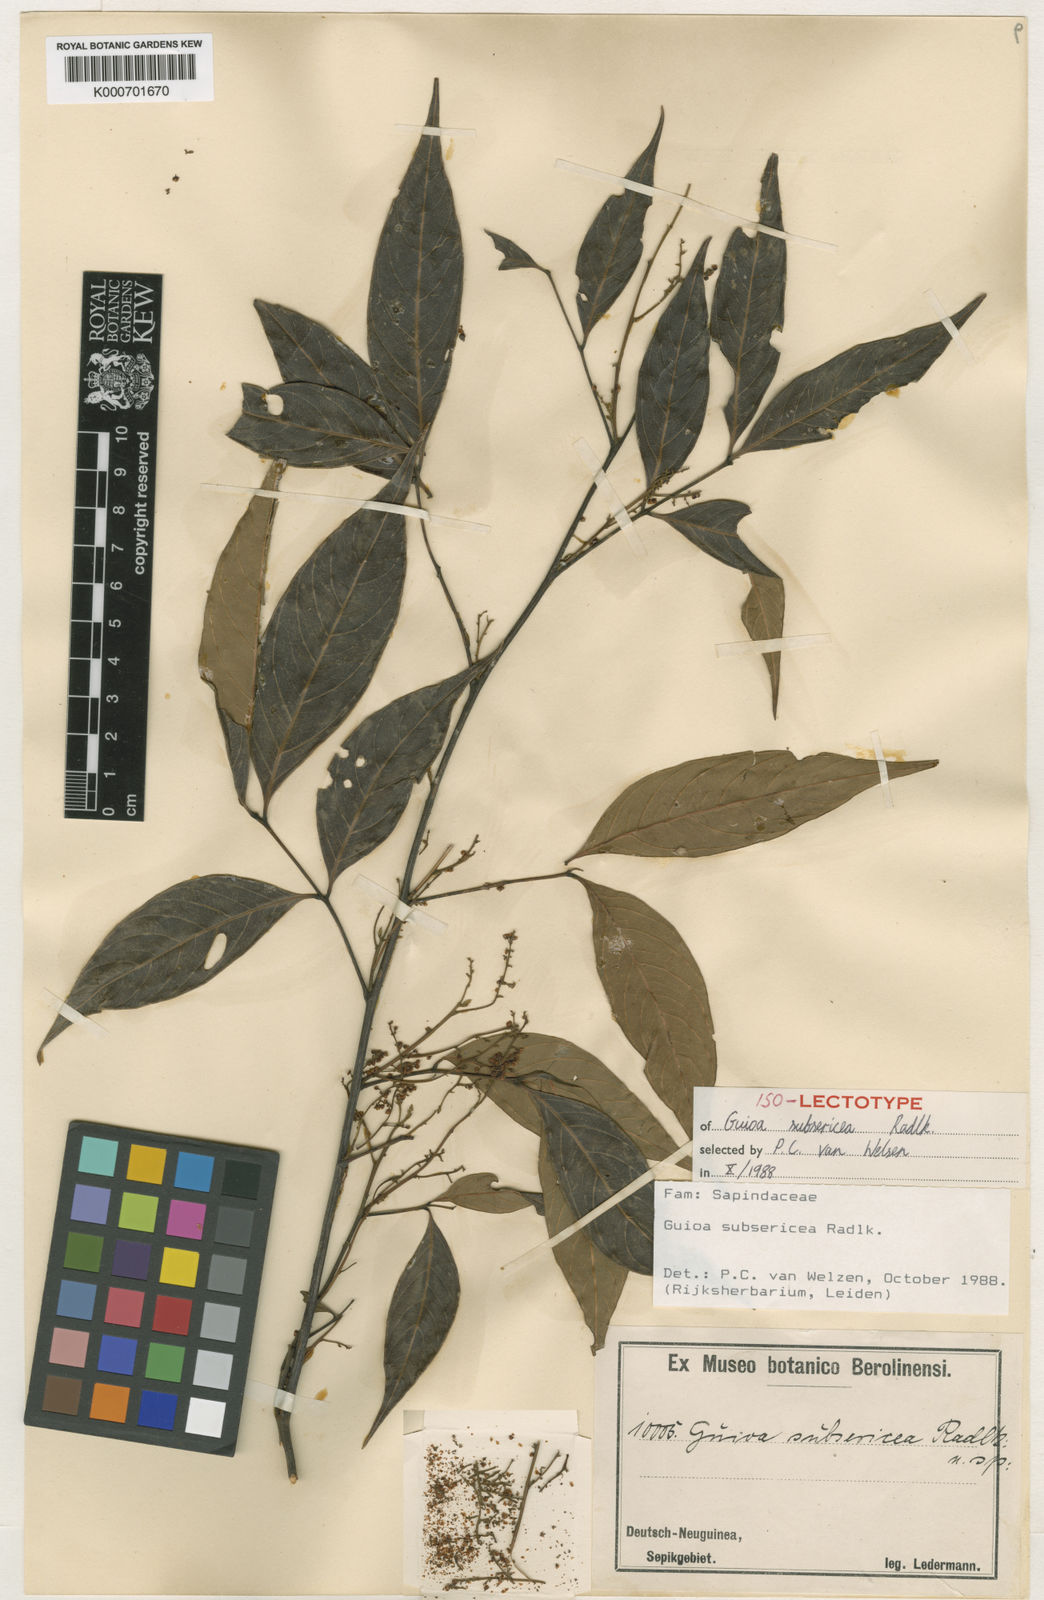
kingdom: Plantae
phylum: Tracheophyta
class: Magnoliopsida
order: Sapindales
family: Sapindaceae
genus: Guioa
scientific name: Guioa subsericea
